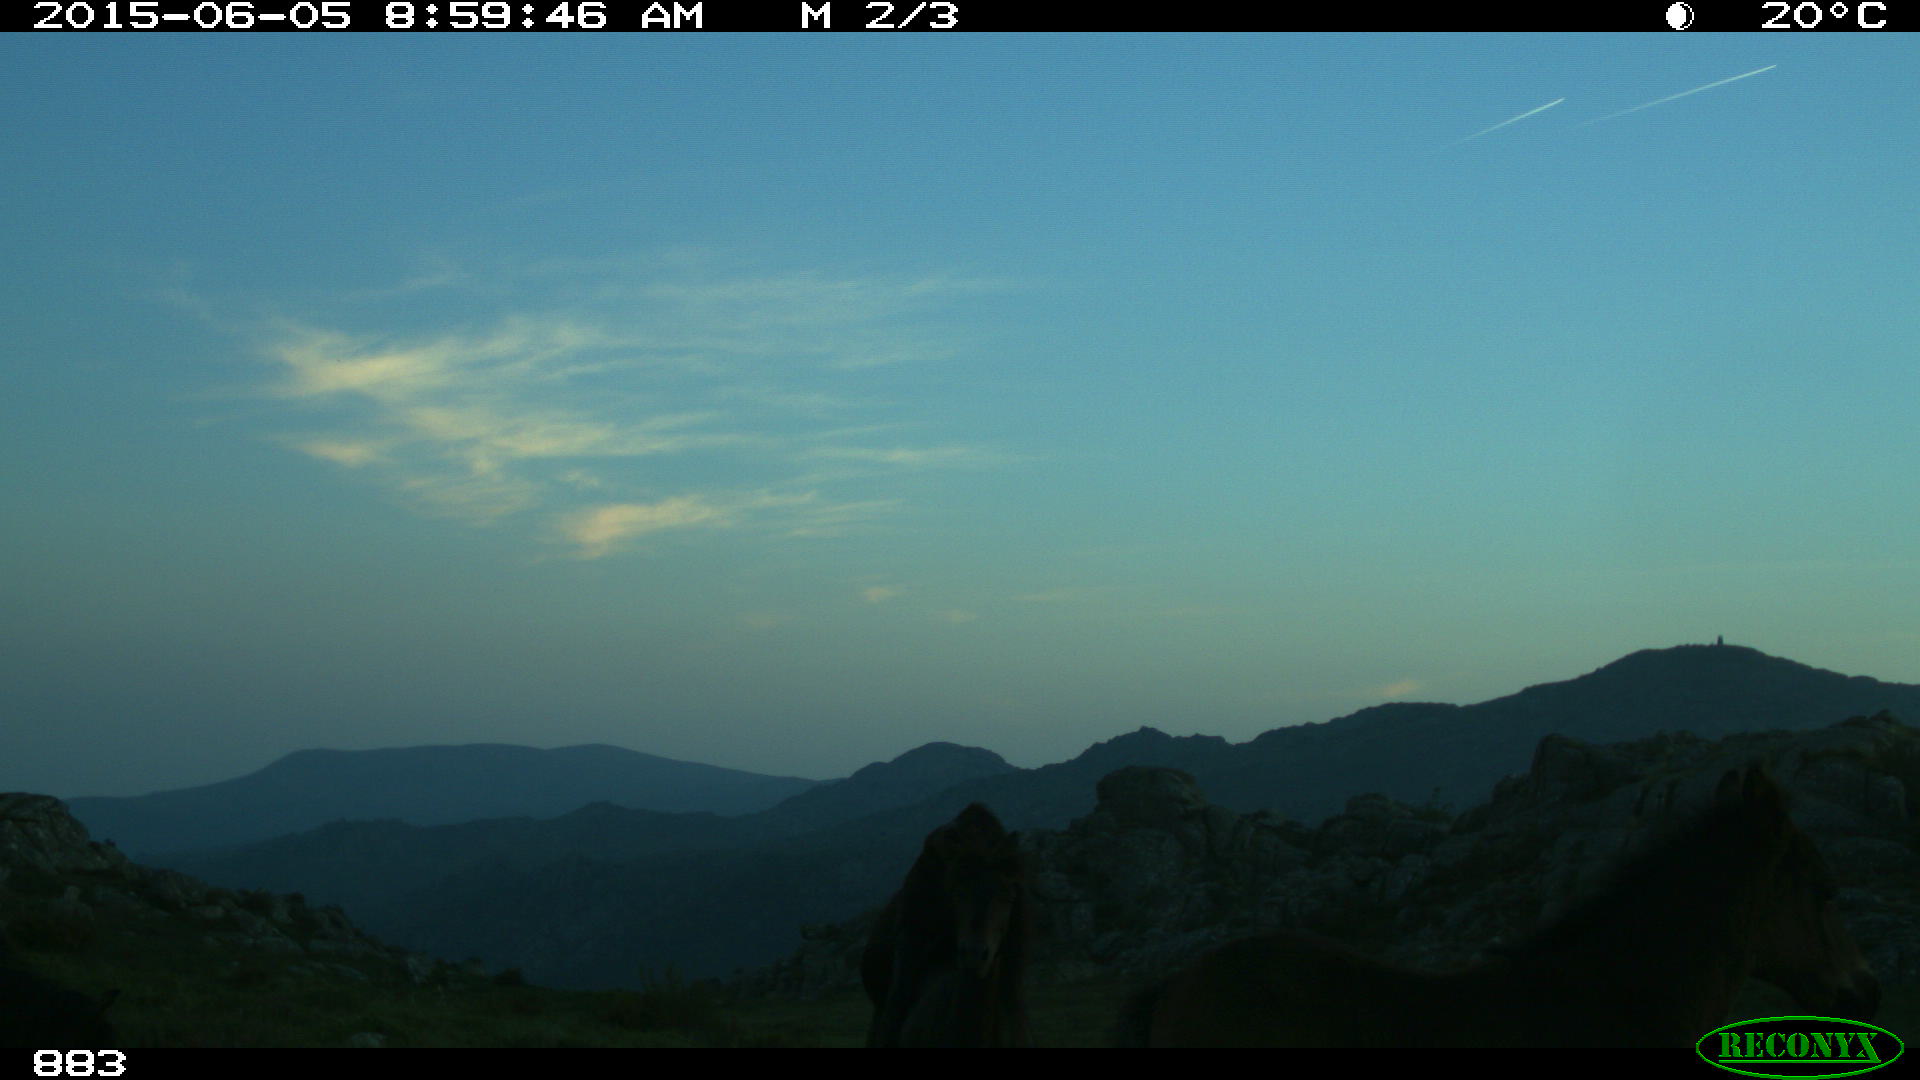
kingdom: Animalia
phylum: Chordata
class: Mammalia
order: Perissodactyla
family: Equidae
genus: Equus
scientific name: Equus caballus
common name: Horse
